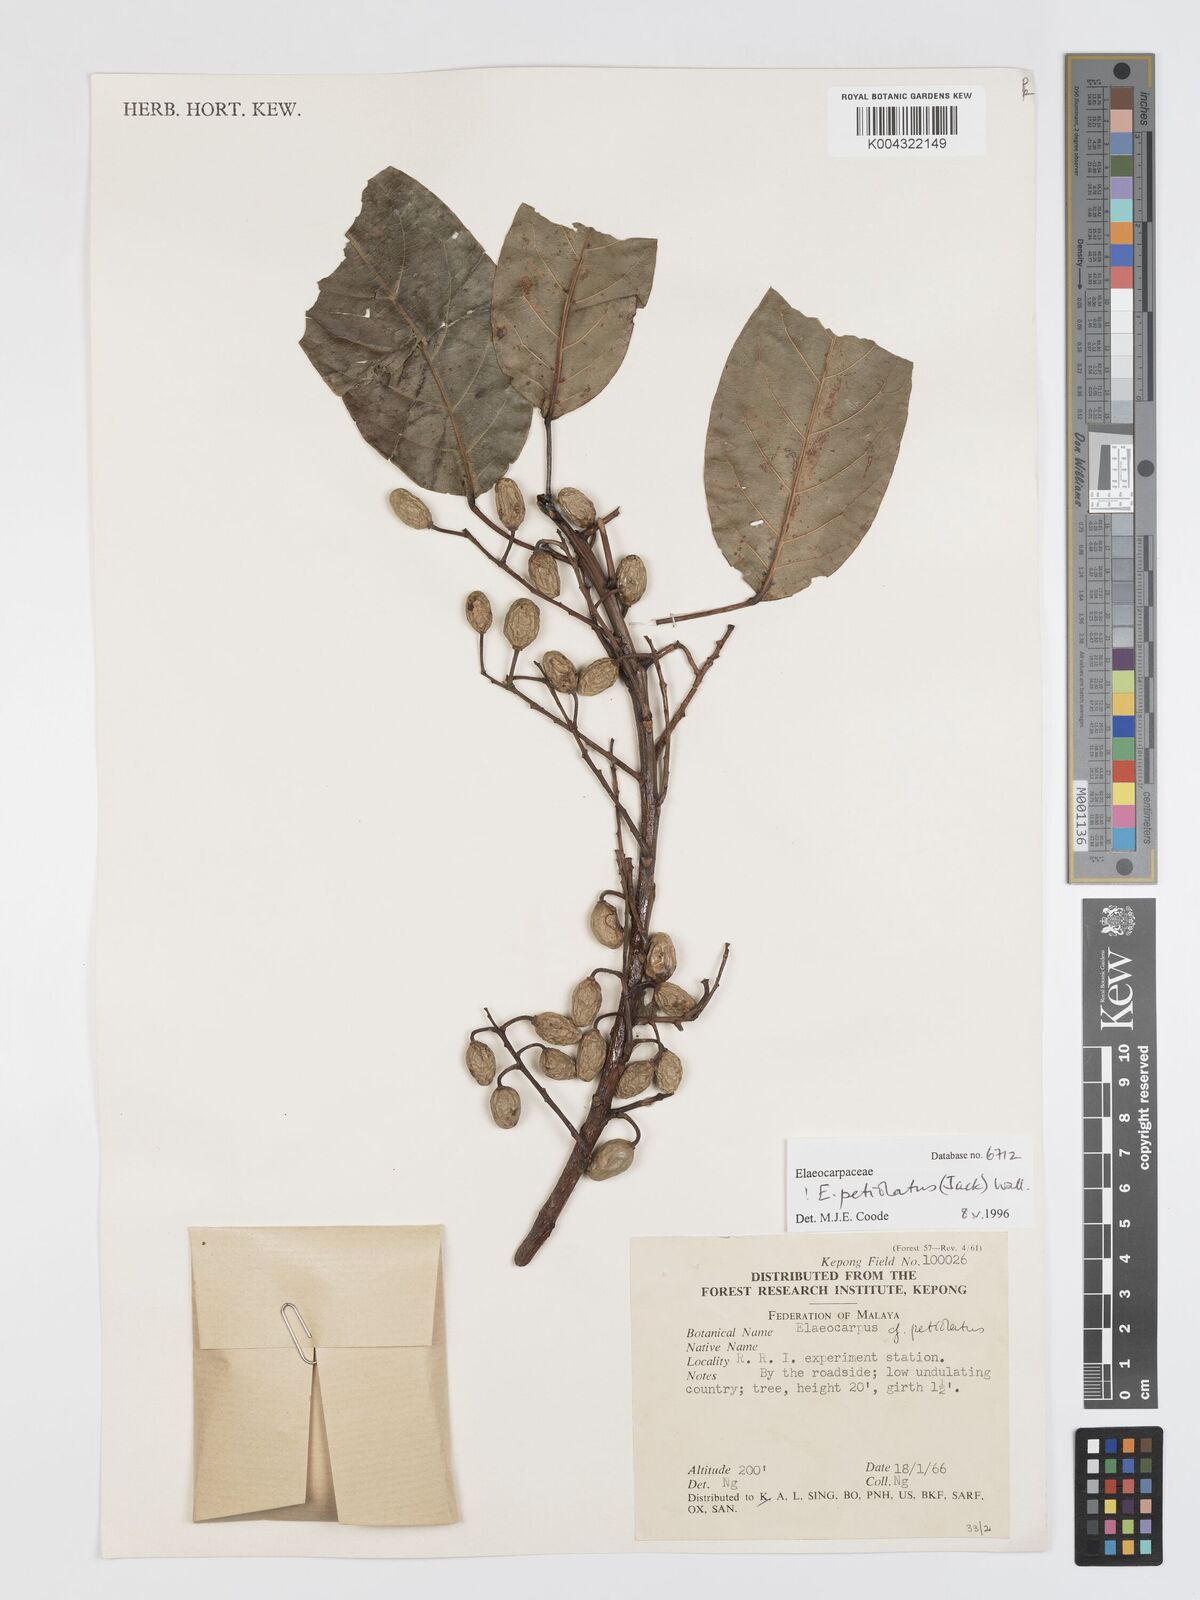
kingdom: Plantae
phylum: Tracheophyta
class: Magnoliopsida
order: Oxalidales
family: Elaeocarpaceae
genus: Elaeocarpus
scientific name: Elaeocarpus
